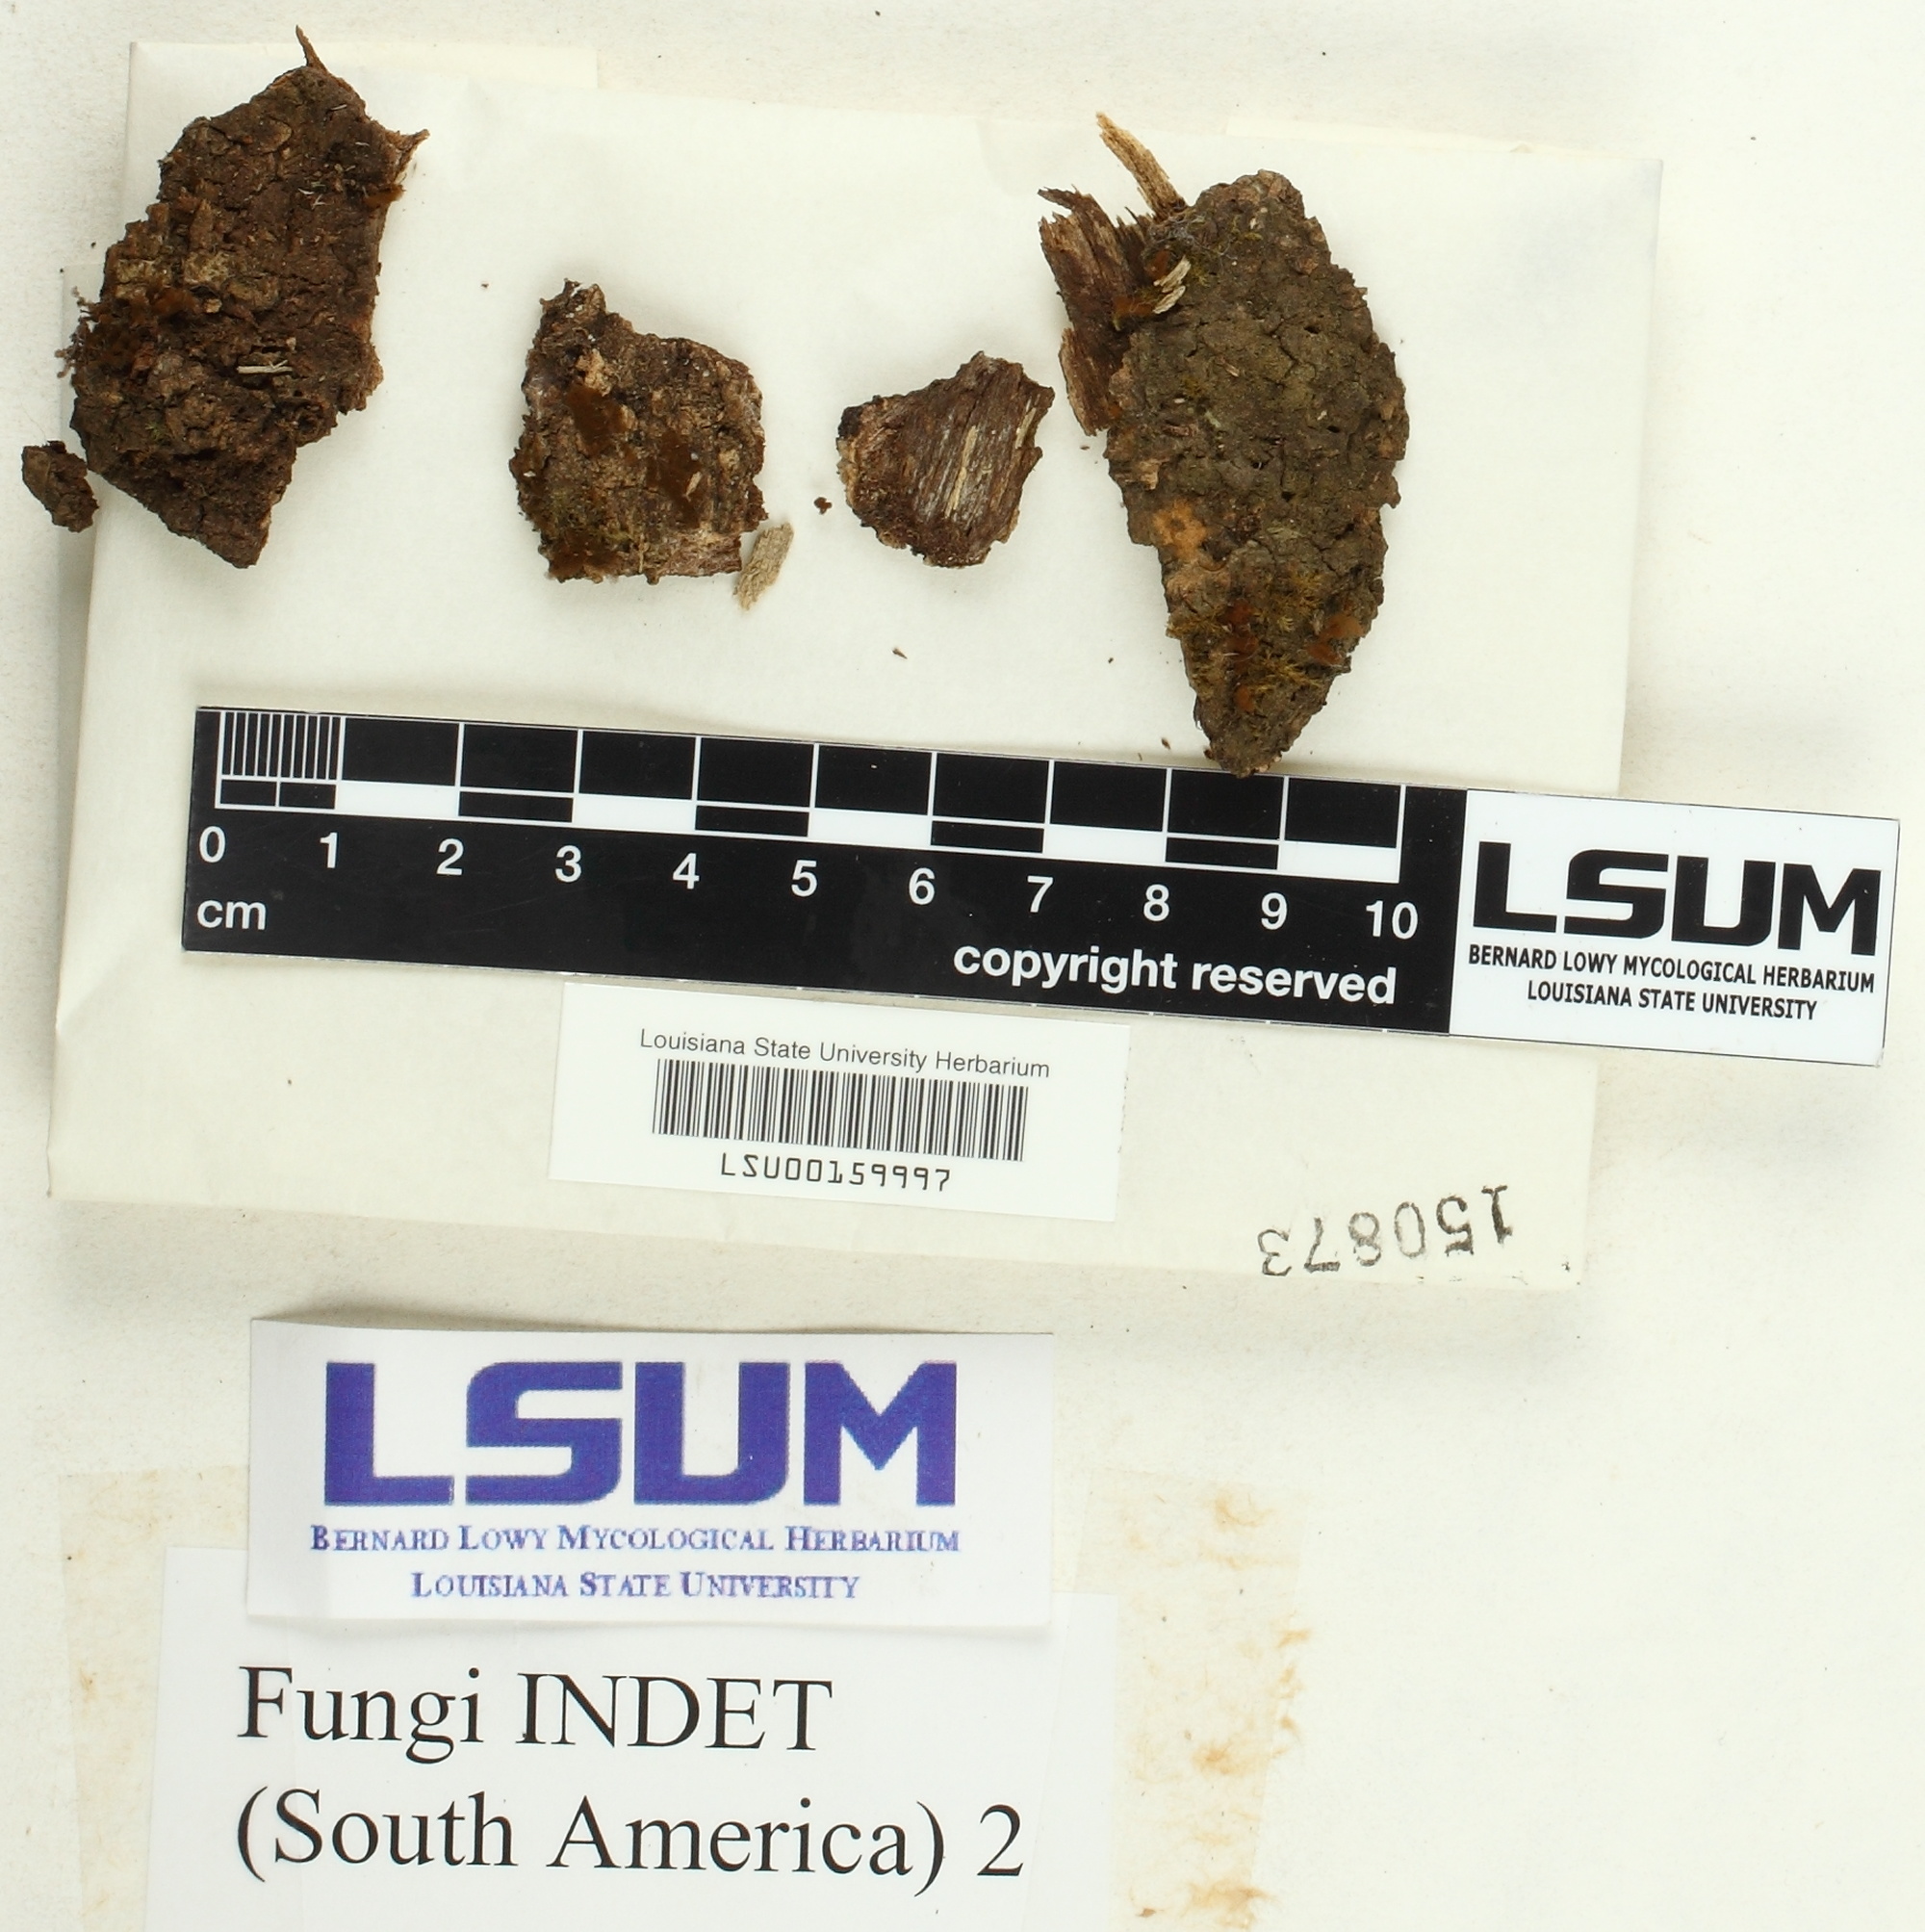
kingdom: Fungi
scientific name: Fungi
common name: Fungi
